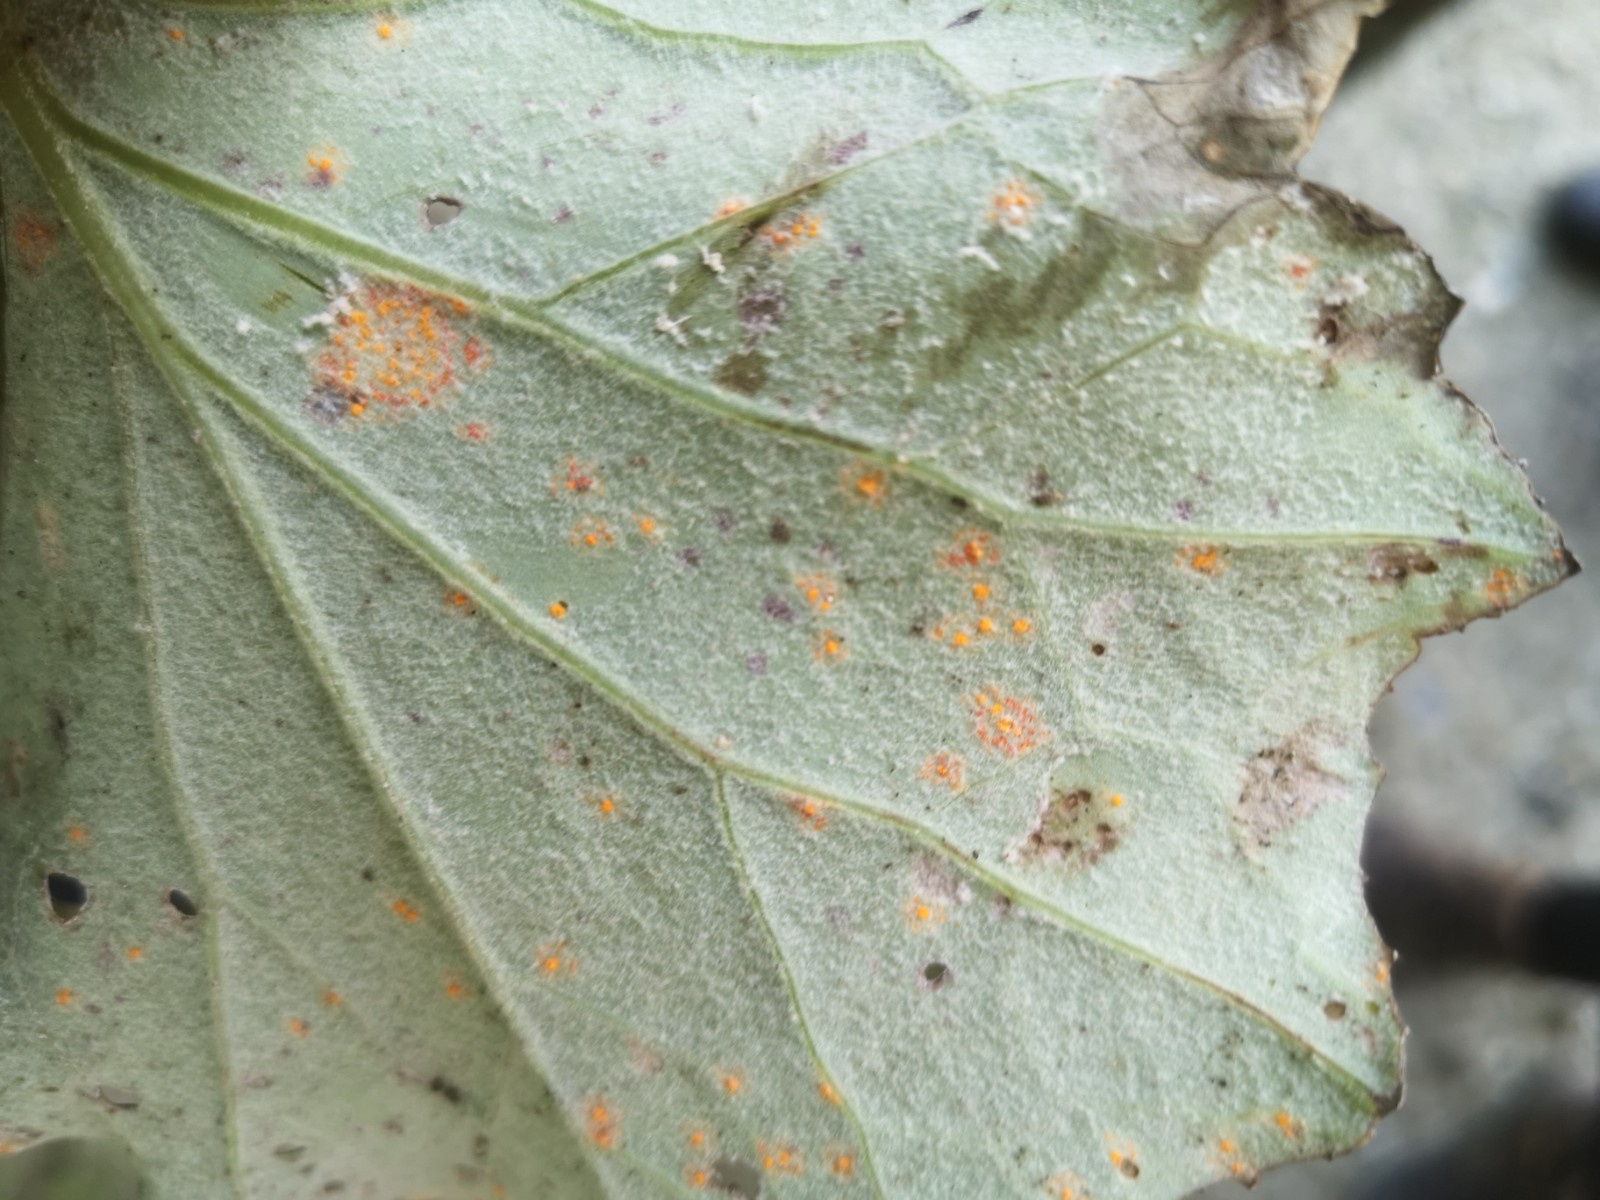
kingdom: Fungi
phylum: Basidiomycota
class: Pucciniomycetes
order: Pucciniales
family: Coleosporiaceae
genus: Coleosporium
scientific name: Coleosporium tussilaginis
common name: almindelig fyrrenålerust
